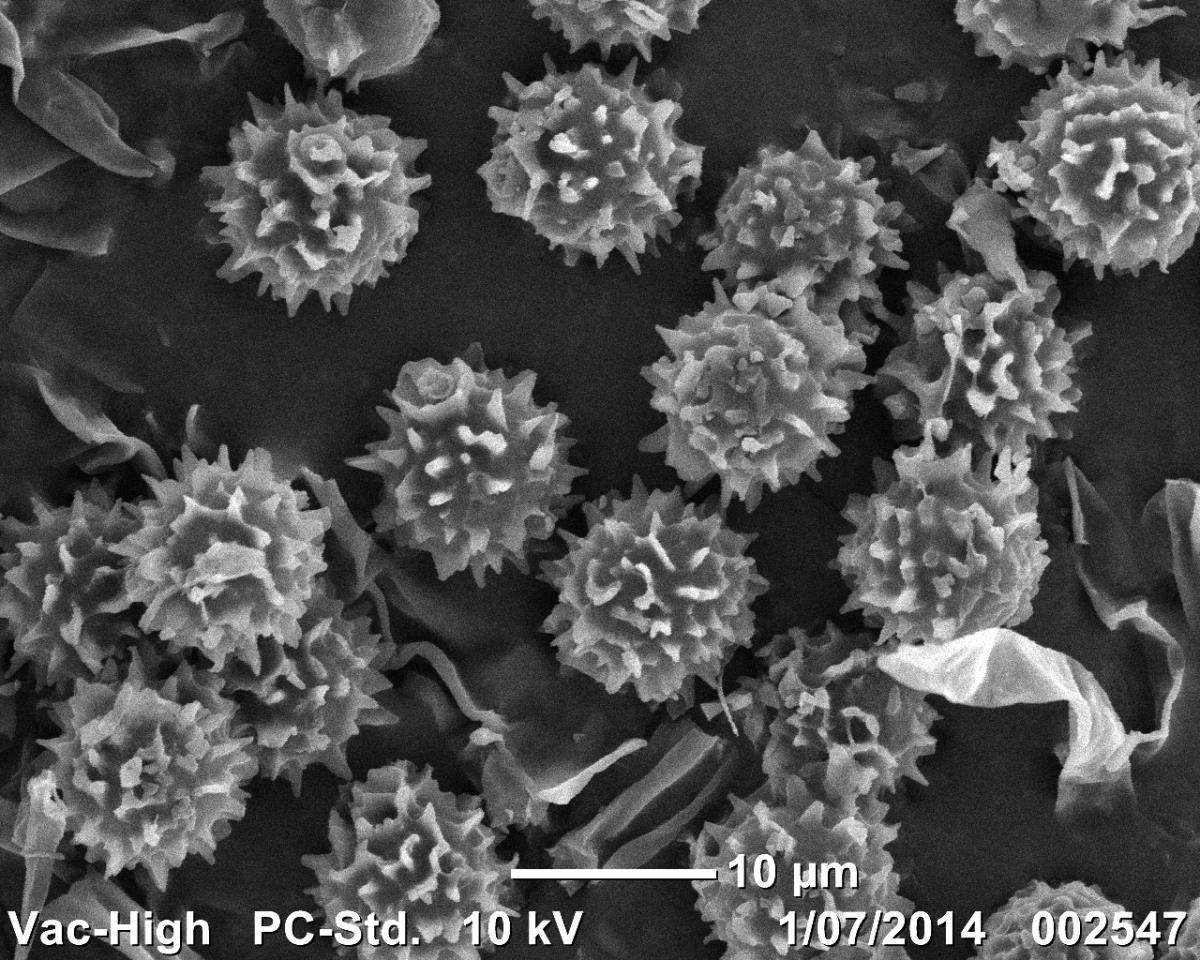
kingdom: Fungi
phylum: Basidiomycota
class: Agaricomycetes
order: Agaricales
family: Stephanosporaceae
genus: Stephanospora
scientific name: Stephanospora hystrispora
